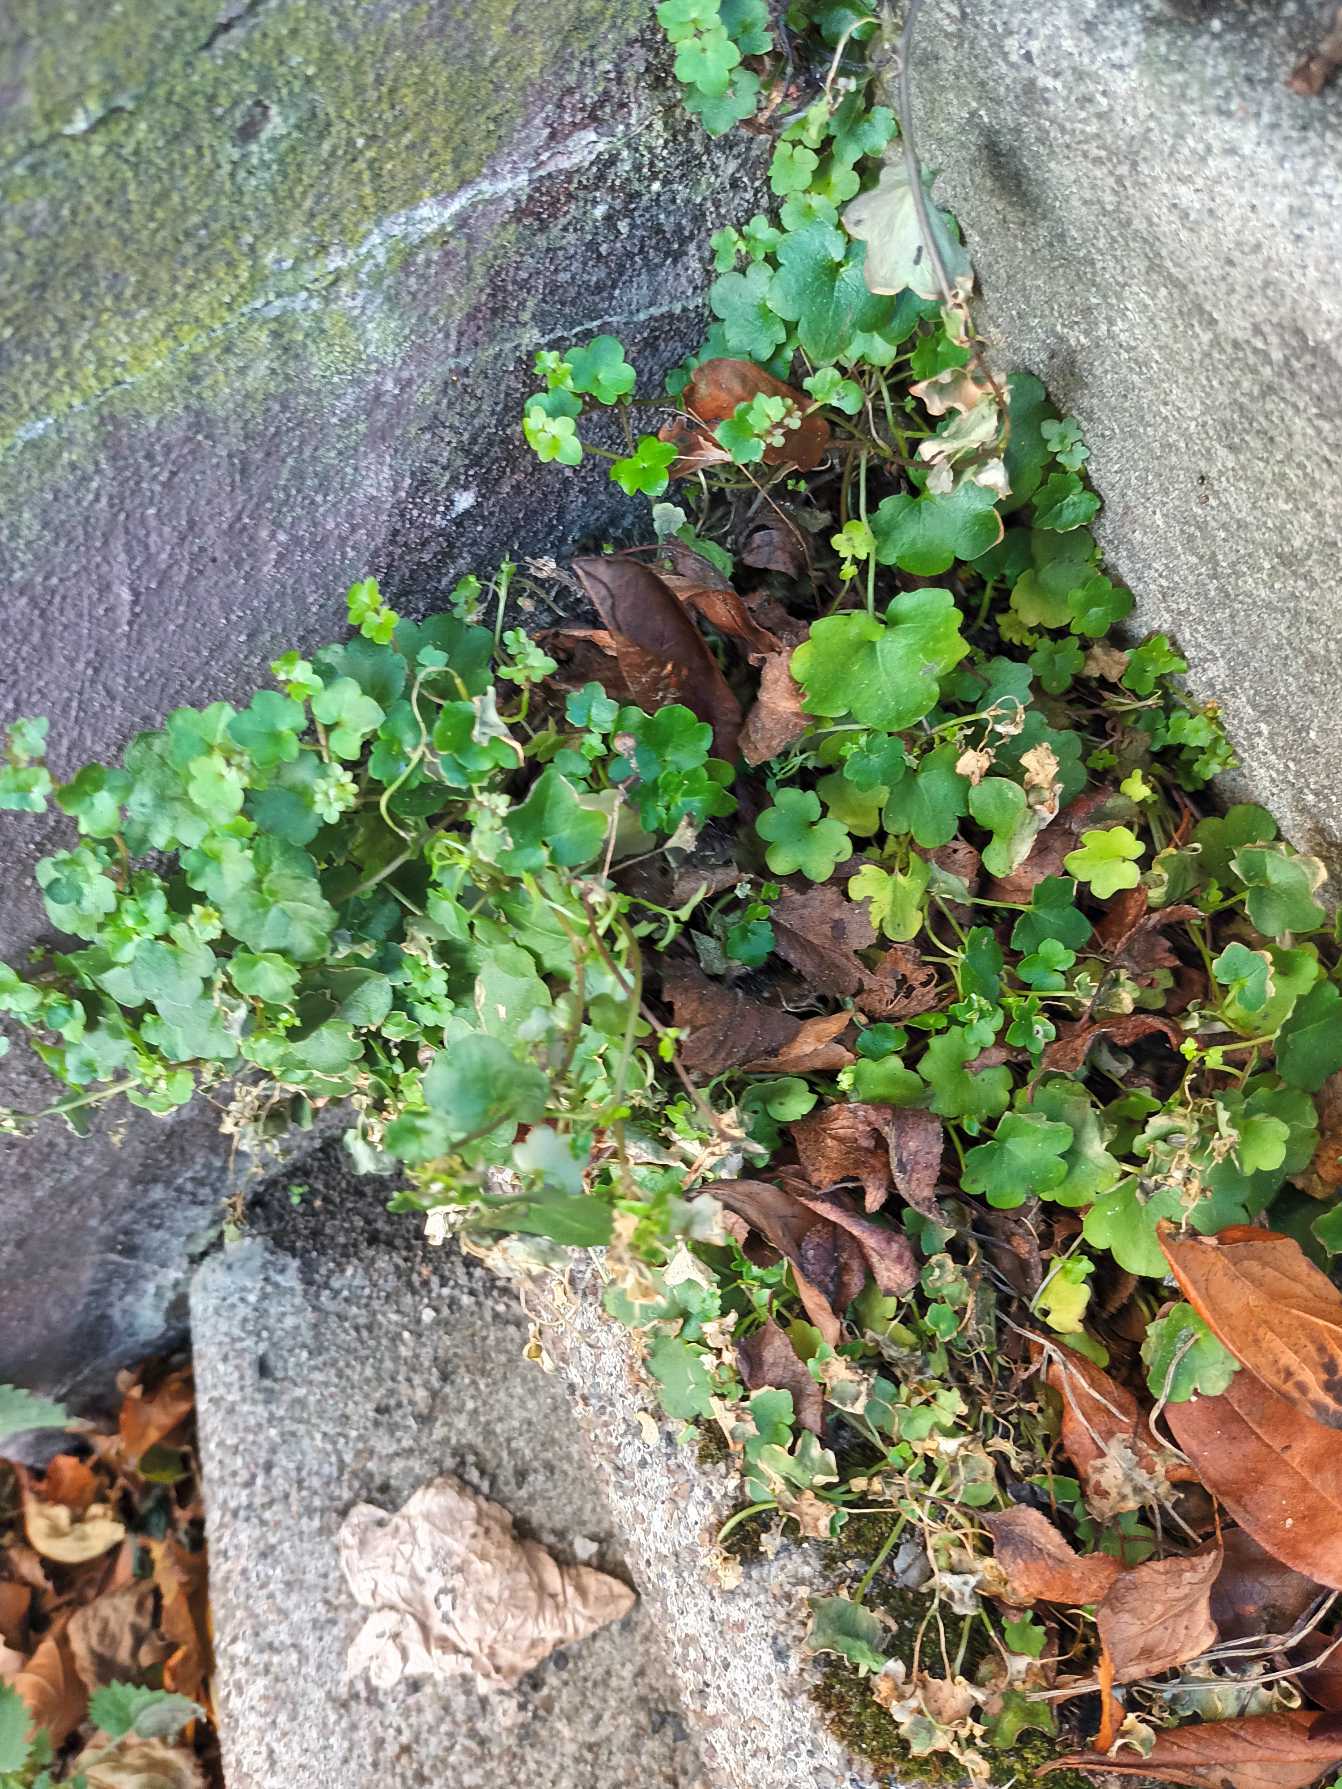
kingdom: Plantae
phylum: Tracheophyta
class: Magnoliopsida
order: Lamiales
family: Plantaginaceae
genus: Cymbalaria
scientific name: Cymbalaria muralis
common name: Vedbend-torskemund
